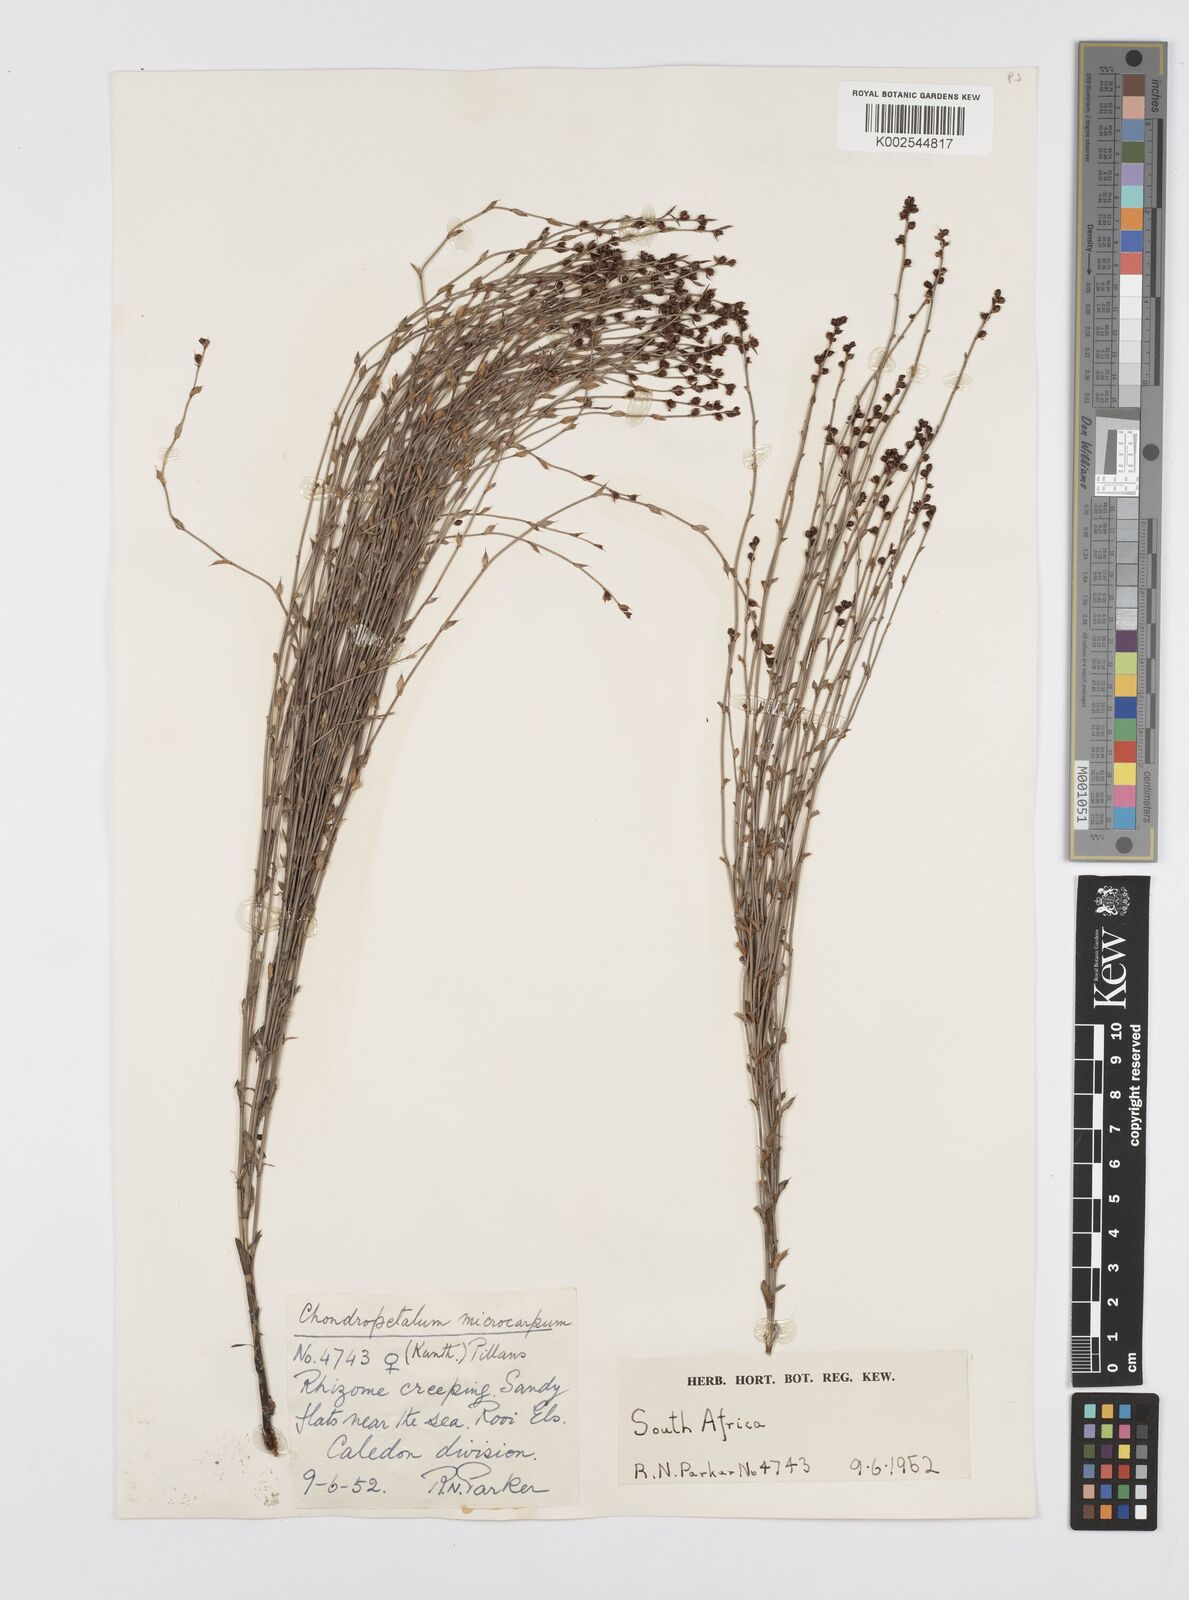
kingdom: Plantae
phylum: Tracheophyta
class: Liliopsida
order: Poales
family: Restionaceae
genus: Elegia
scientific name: Elegia microcarpa
